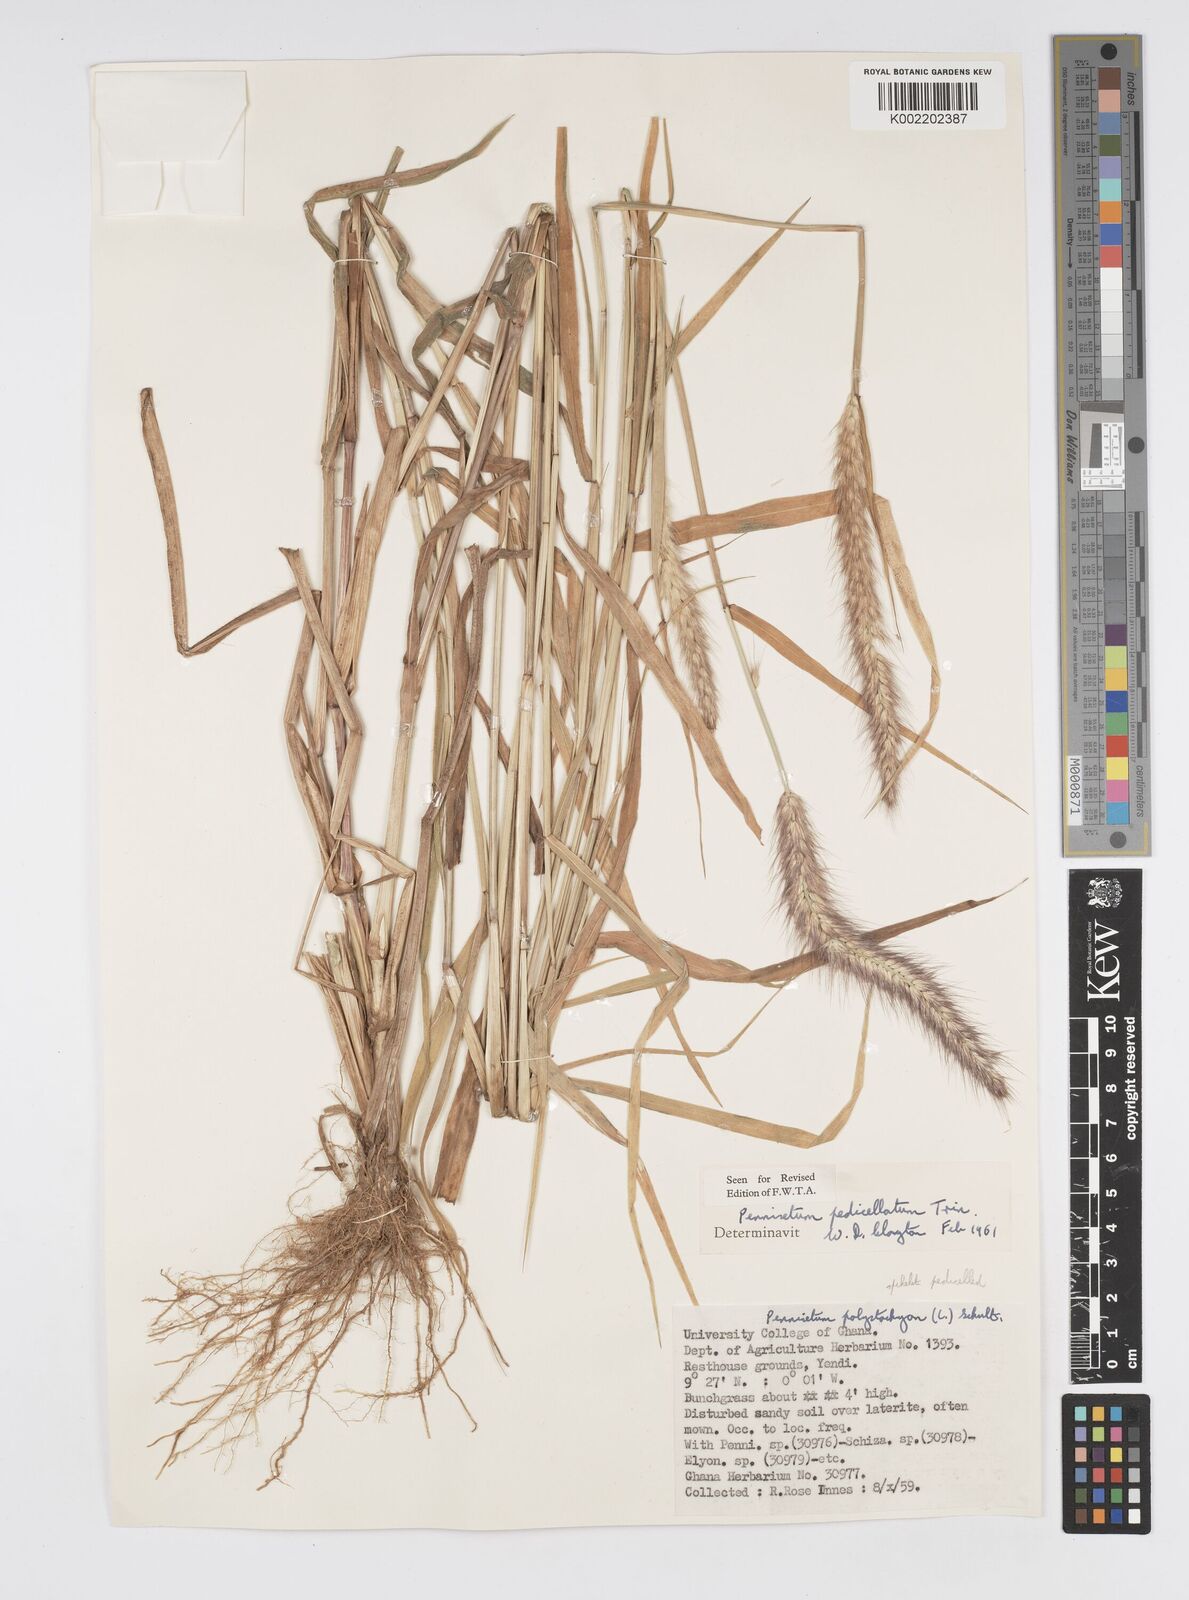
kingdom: Plantae
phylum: Tracheophyta
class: Liliopsida
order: Poales
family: Poaceae
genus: Cenchrus
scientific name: Cenchrus pedicellatus
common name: Hairy fountain grass
